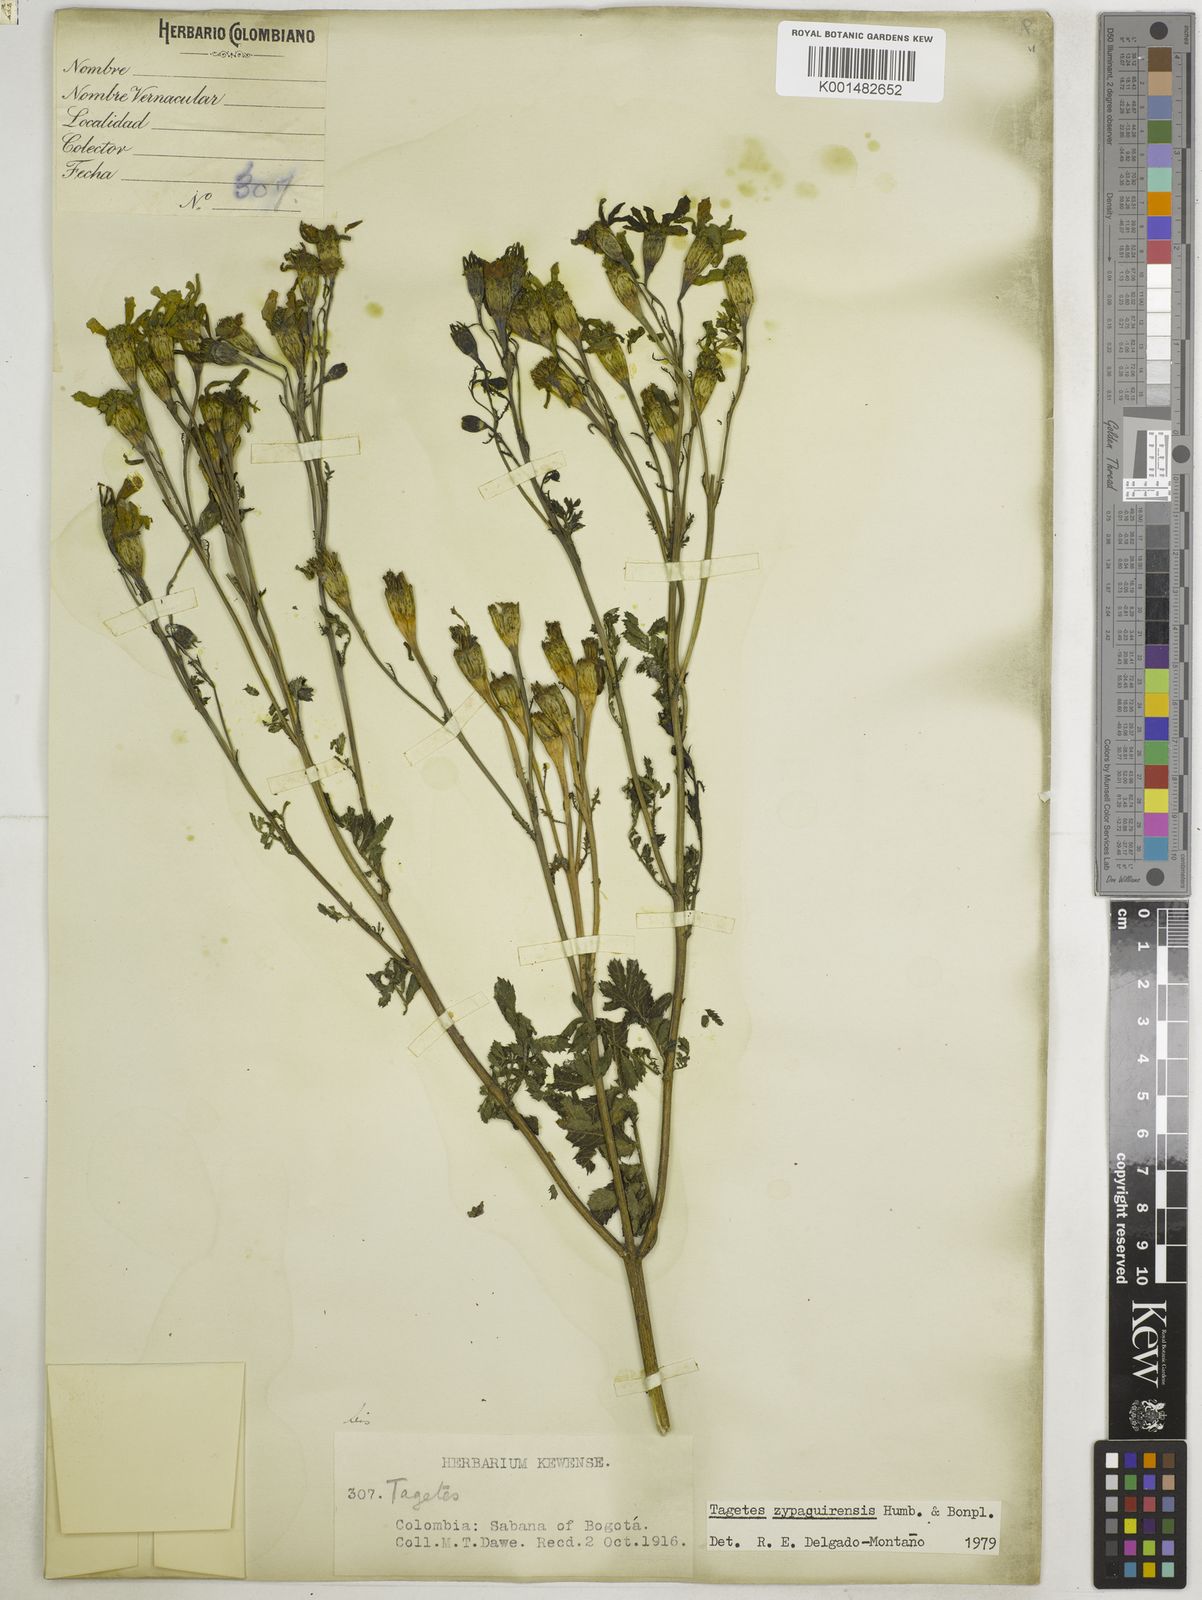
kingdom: Plantae
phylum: Tracheophyta
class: Magnoliopsida
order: Asterales
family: Asteraceae
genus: Tagetes
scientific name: Tagetes zypaquirensis
